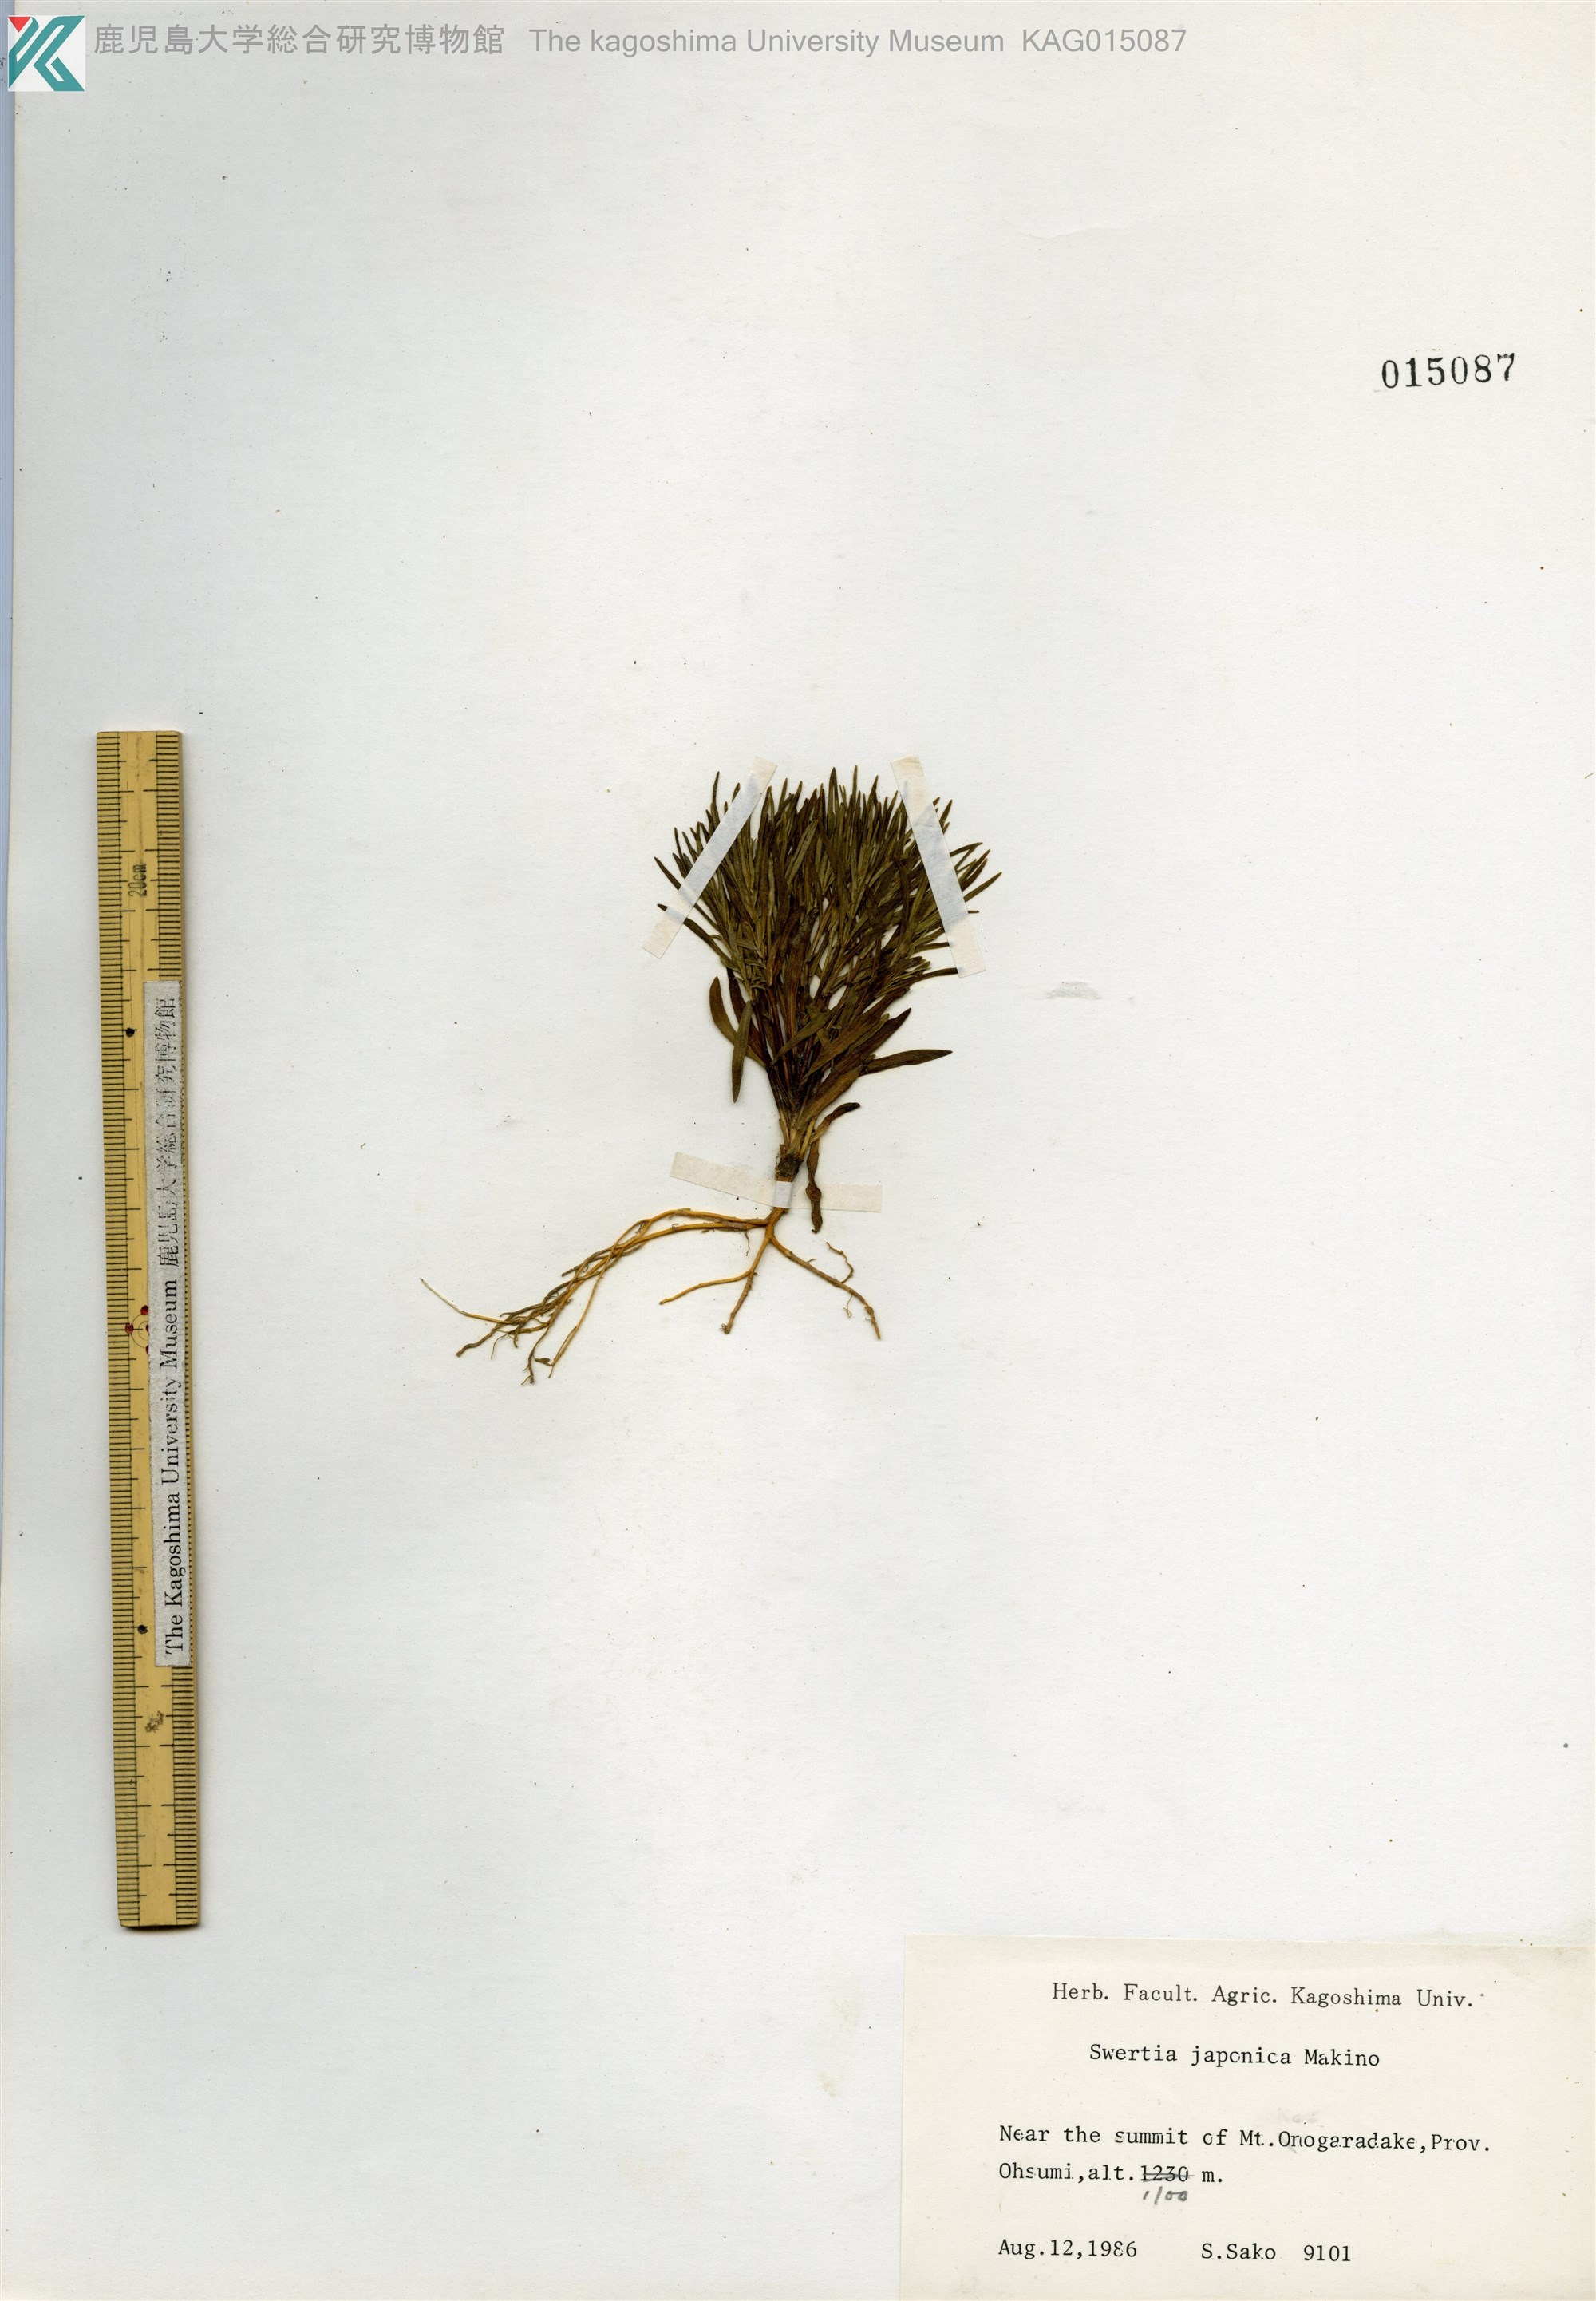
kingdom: Plantae
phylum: Tracheophyta
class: Magnoliopsida
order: Gentianales
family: Gentianaceae
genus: Swertia
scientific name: Swertia japonica
